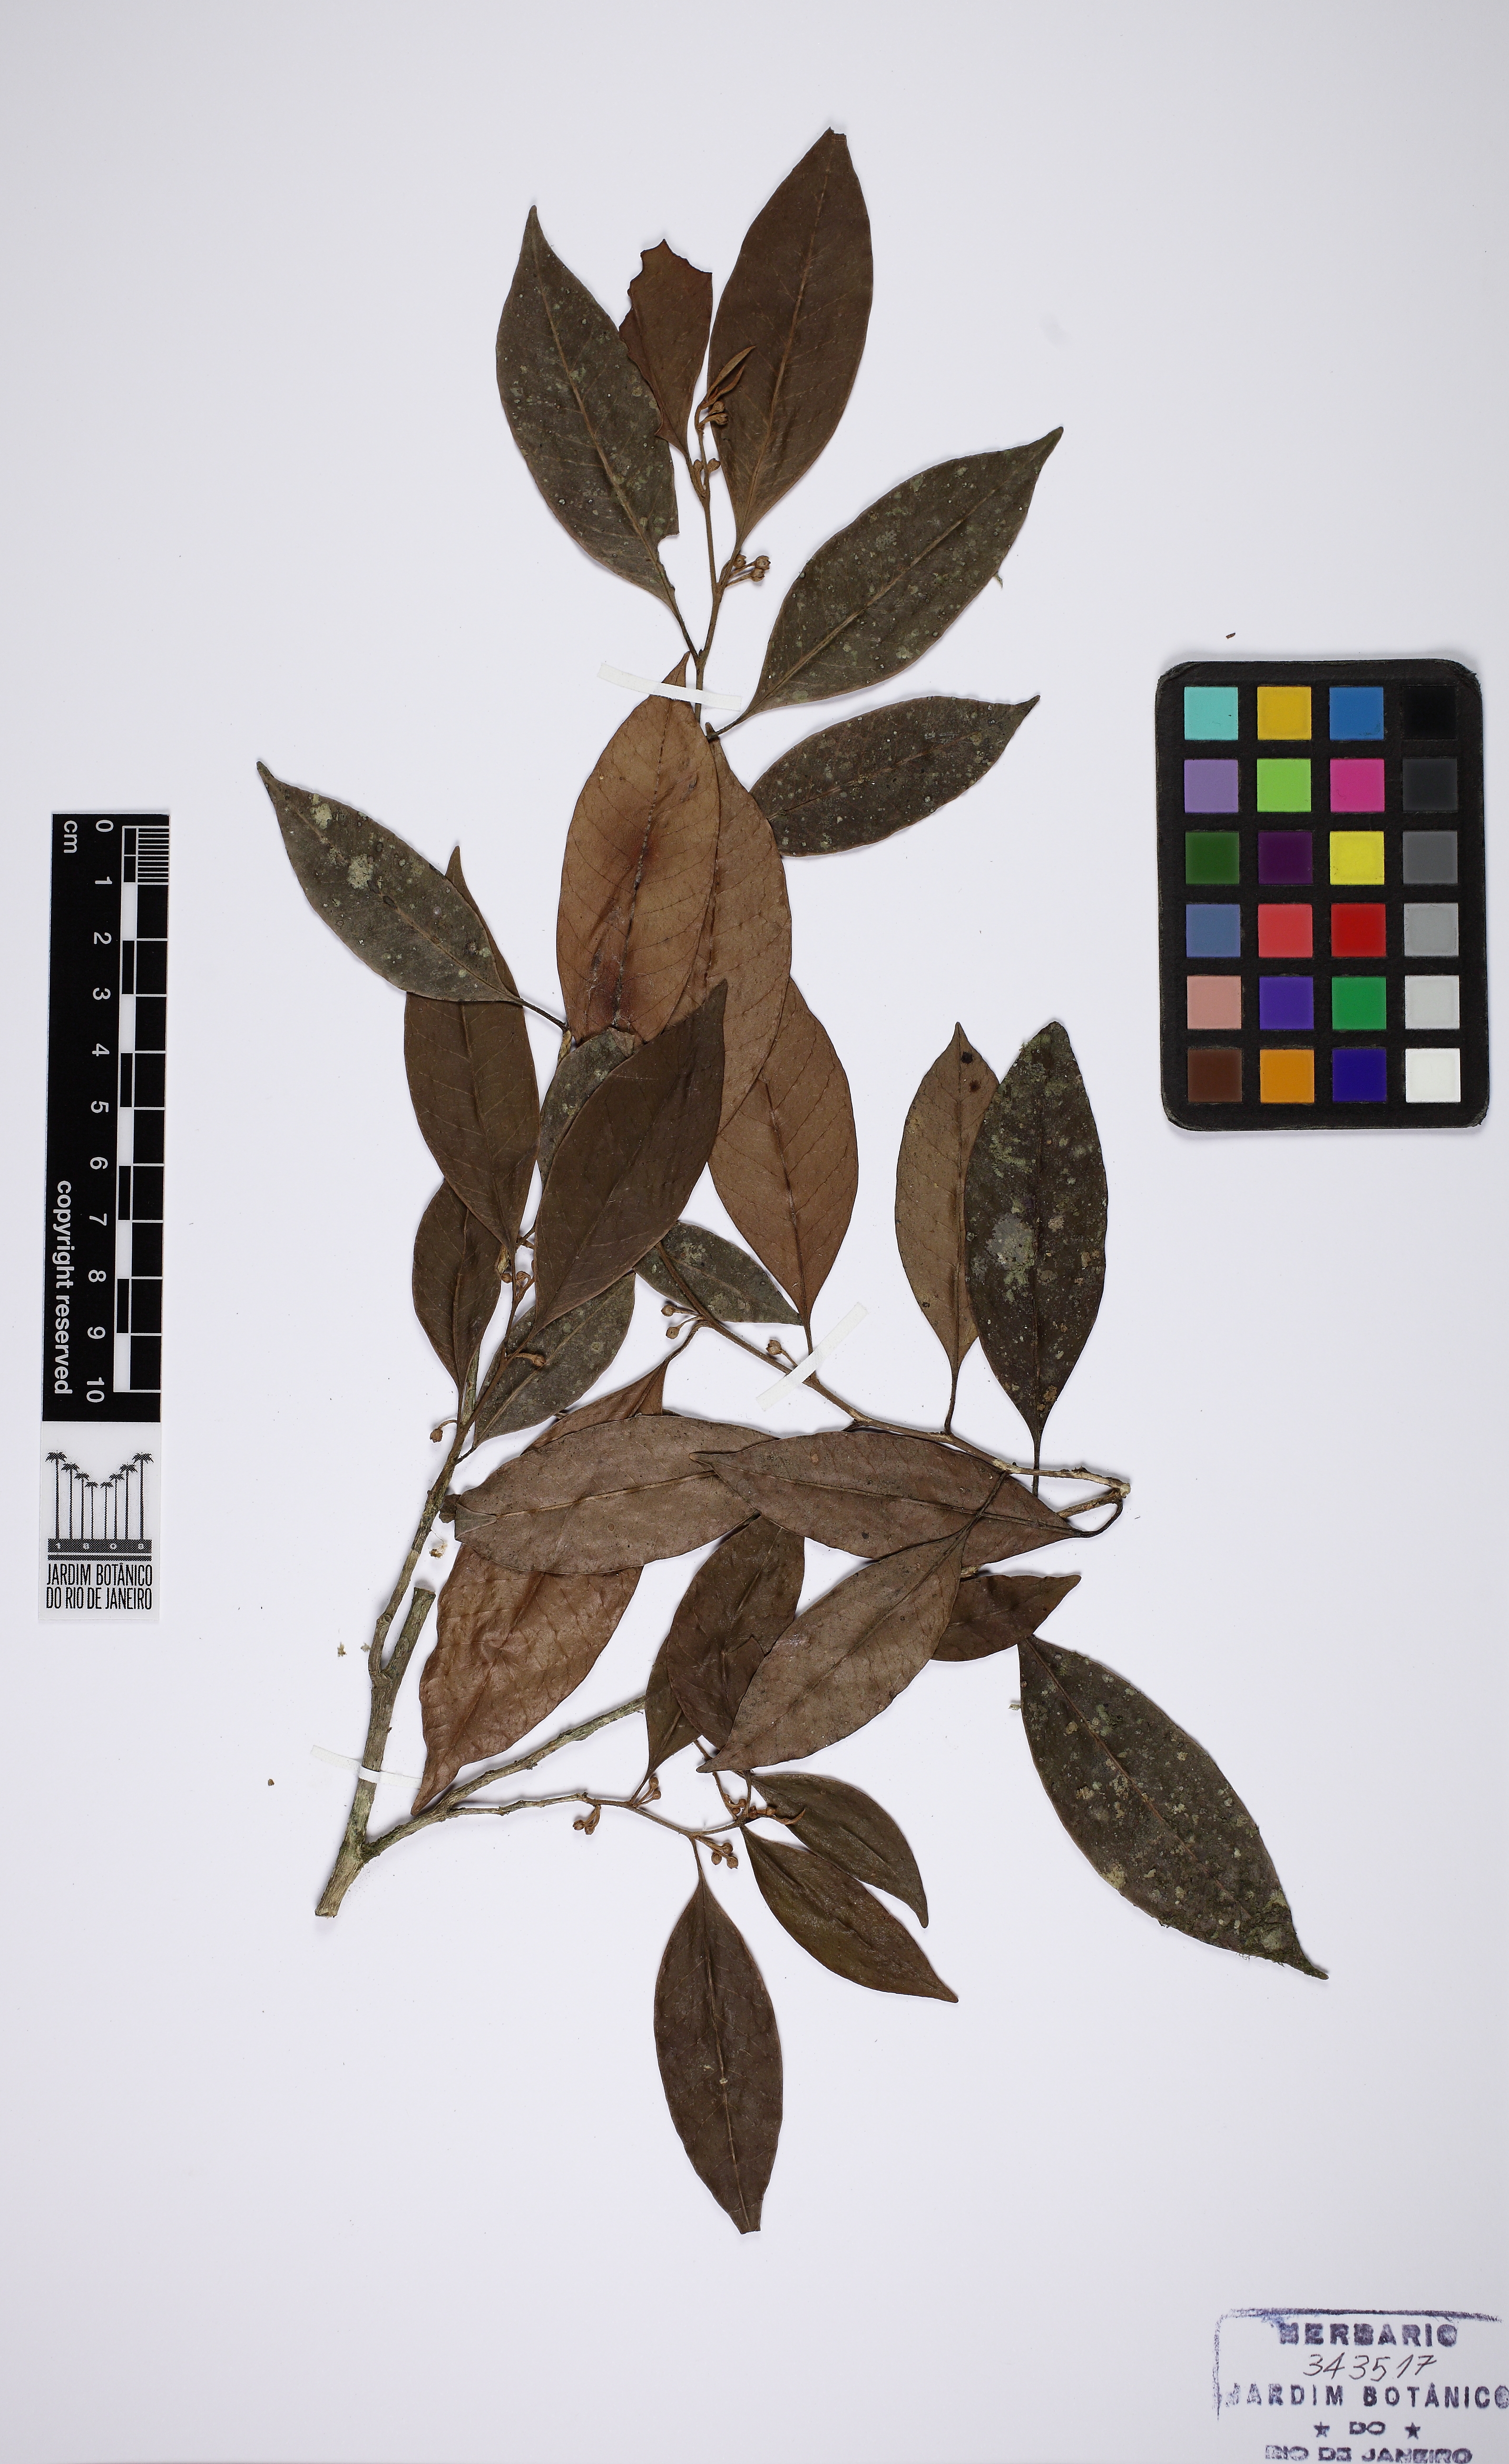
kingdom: Plantae
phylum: Tracheophyta
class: Magnoliopsida
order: Ericales
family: Sapotaceae
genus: Chrysophyllum
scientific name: Chrysophyllum flexuosum
